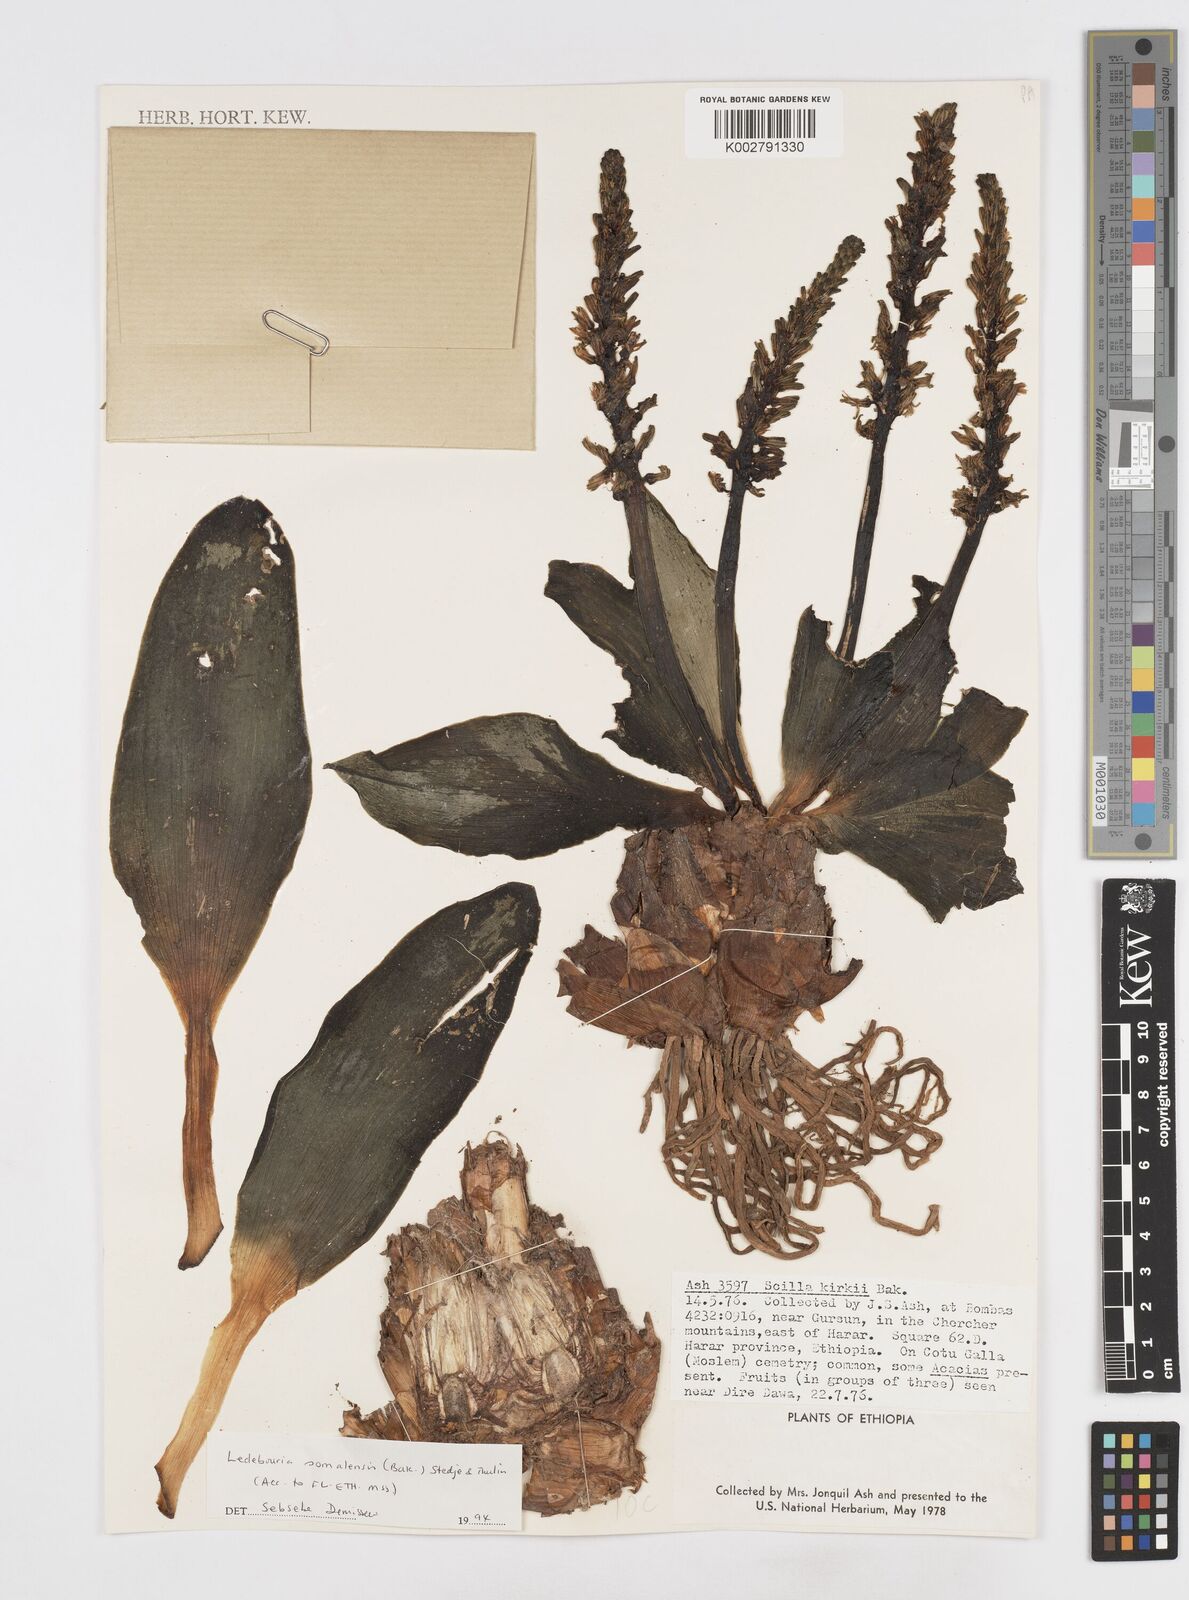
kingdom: Plantae
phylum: Tracheophyta
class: Liliopsida
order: Asparagales
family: Asparagaceae
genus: Scilla
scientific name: Scilla
